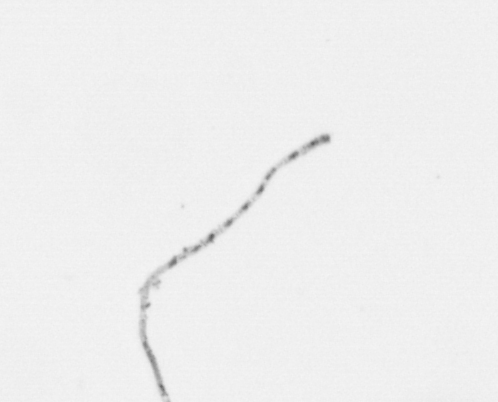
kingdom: Chromista
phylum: Ochrophyta
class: Bacillariophyceae
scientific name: Bacillariophyceae
